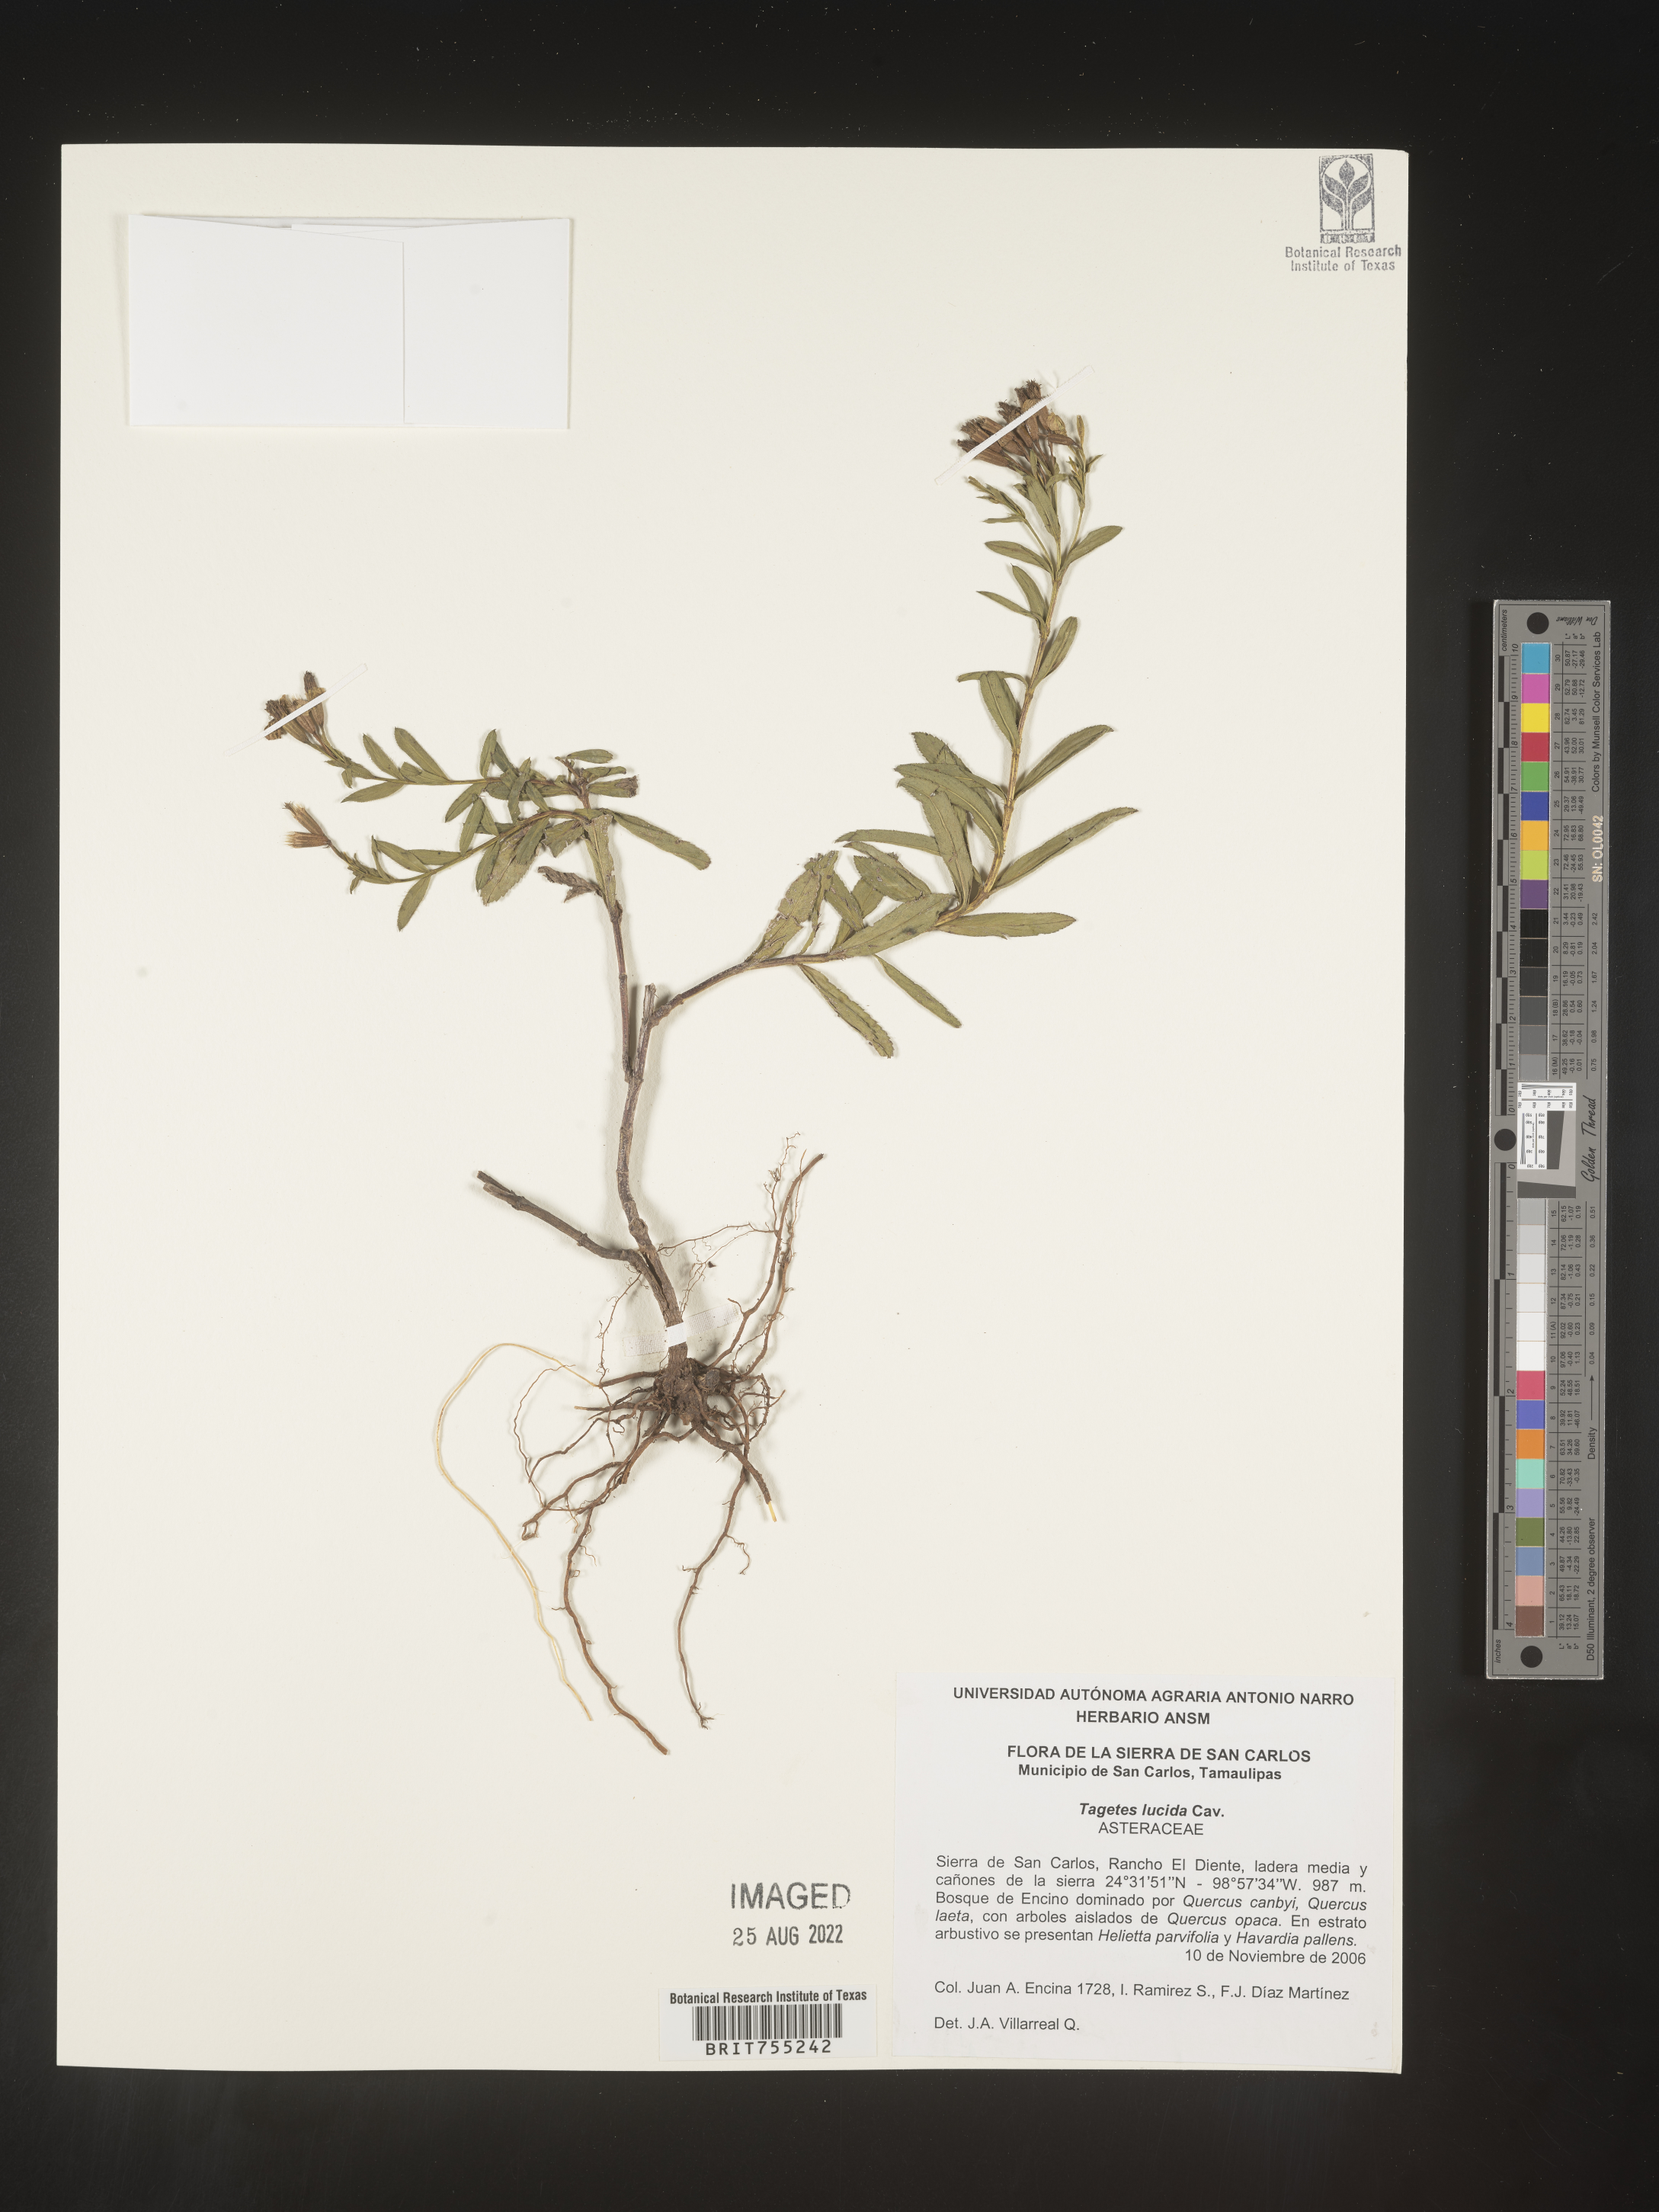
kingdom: Plantae
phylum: Tracheophyta
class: Magnoliopsida
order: Asterales
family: Asteraceae
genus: Tagetes
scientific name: Tagetes lucida
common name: Sweetscented marigold
